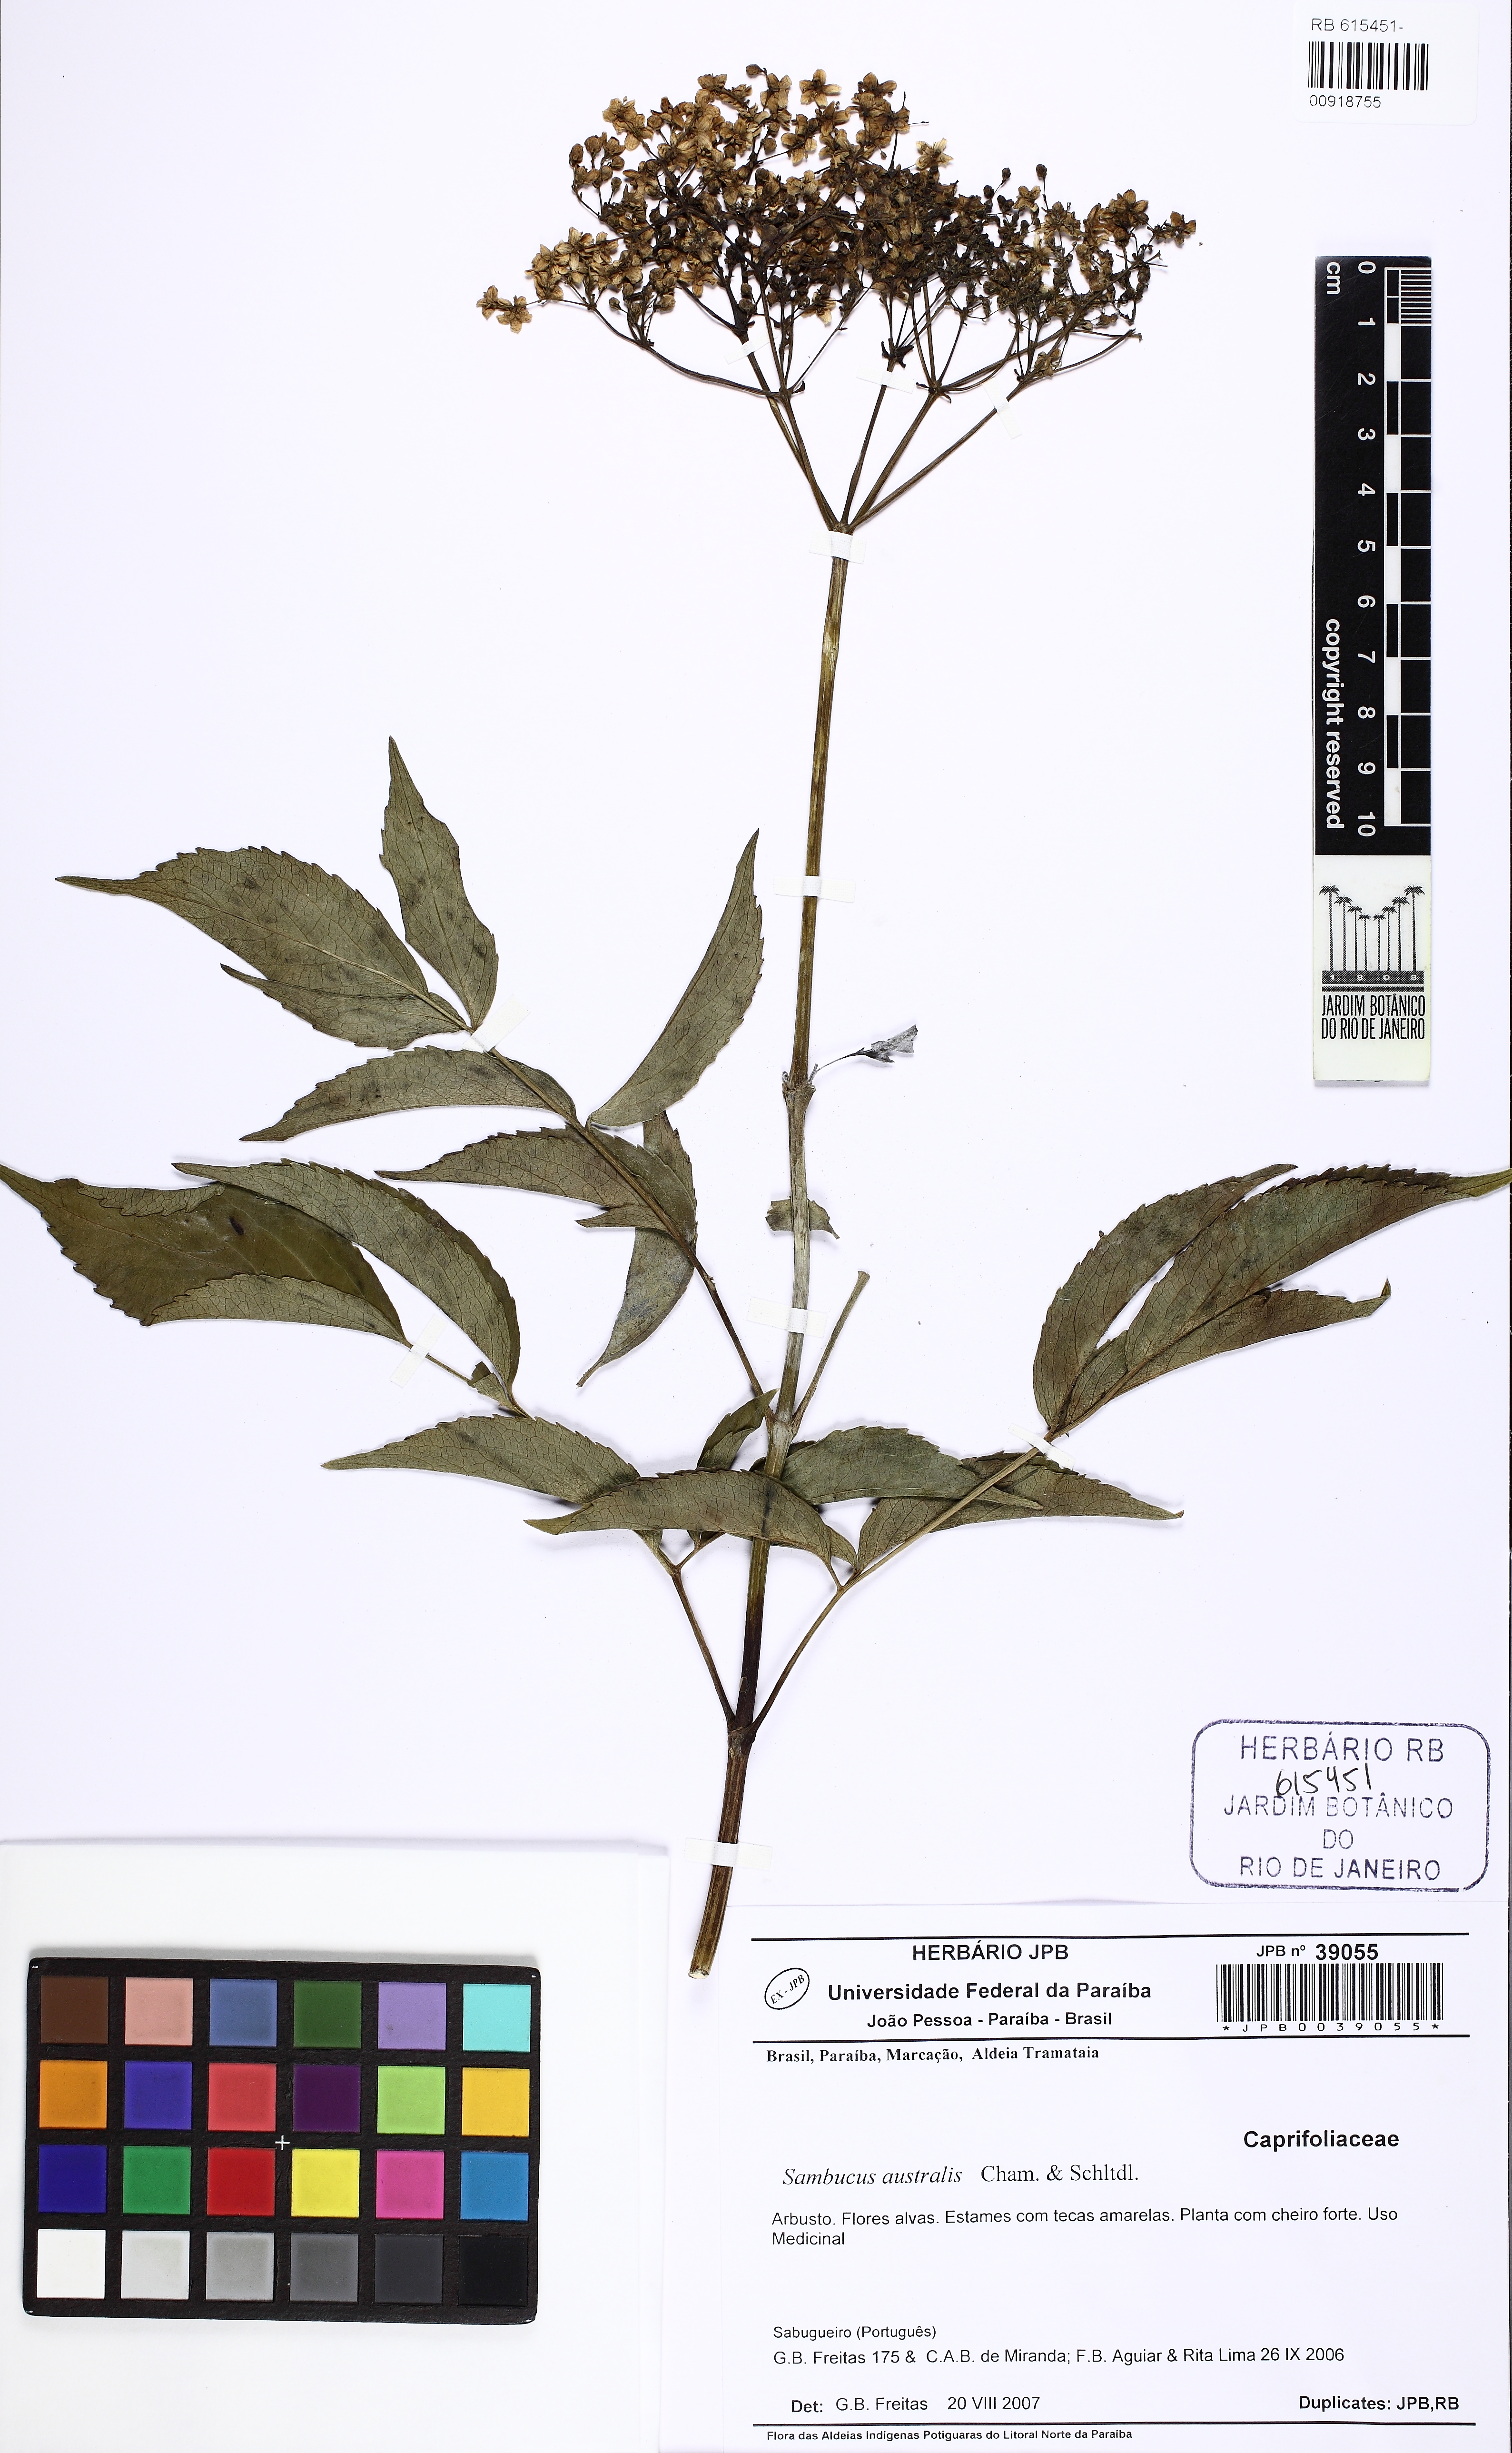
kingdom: Plantae
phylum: Tracheophyta
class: Magnoliopsida
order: Dipsacales
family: Viburnaceae
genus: Sambucus
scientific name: Sambucus australis
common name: Southern elder
